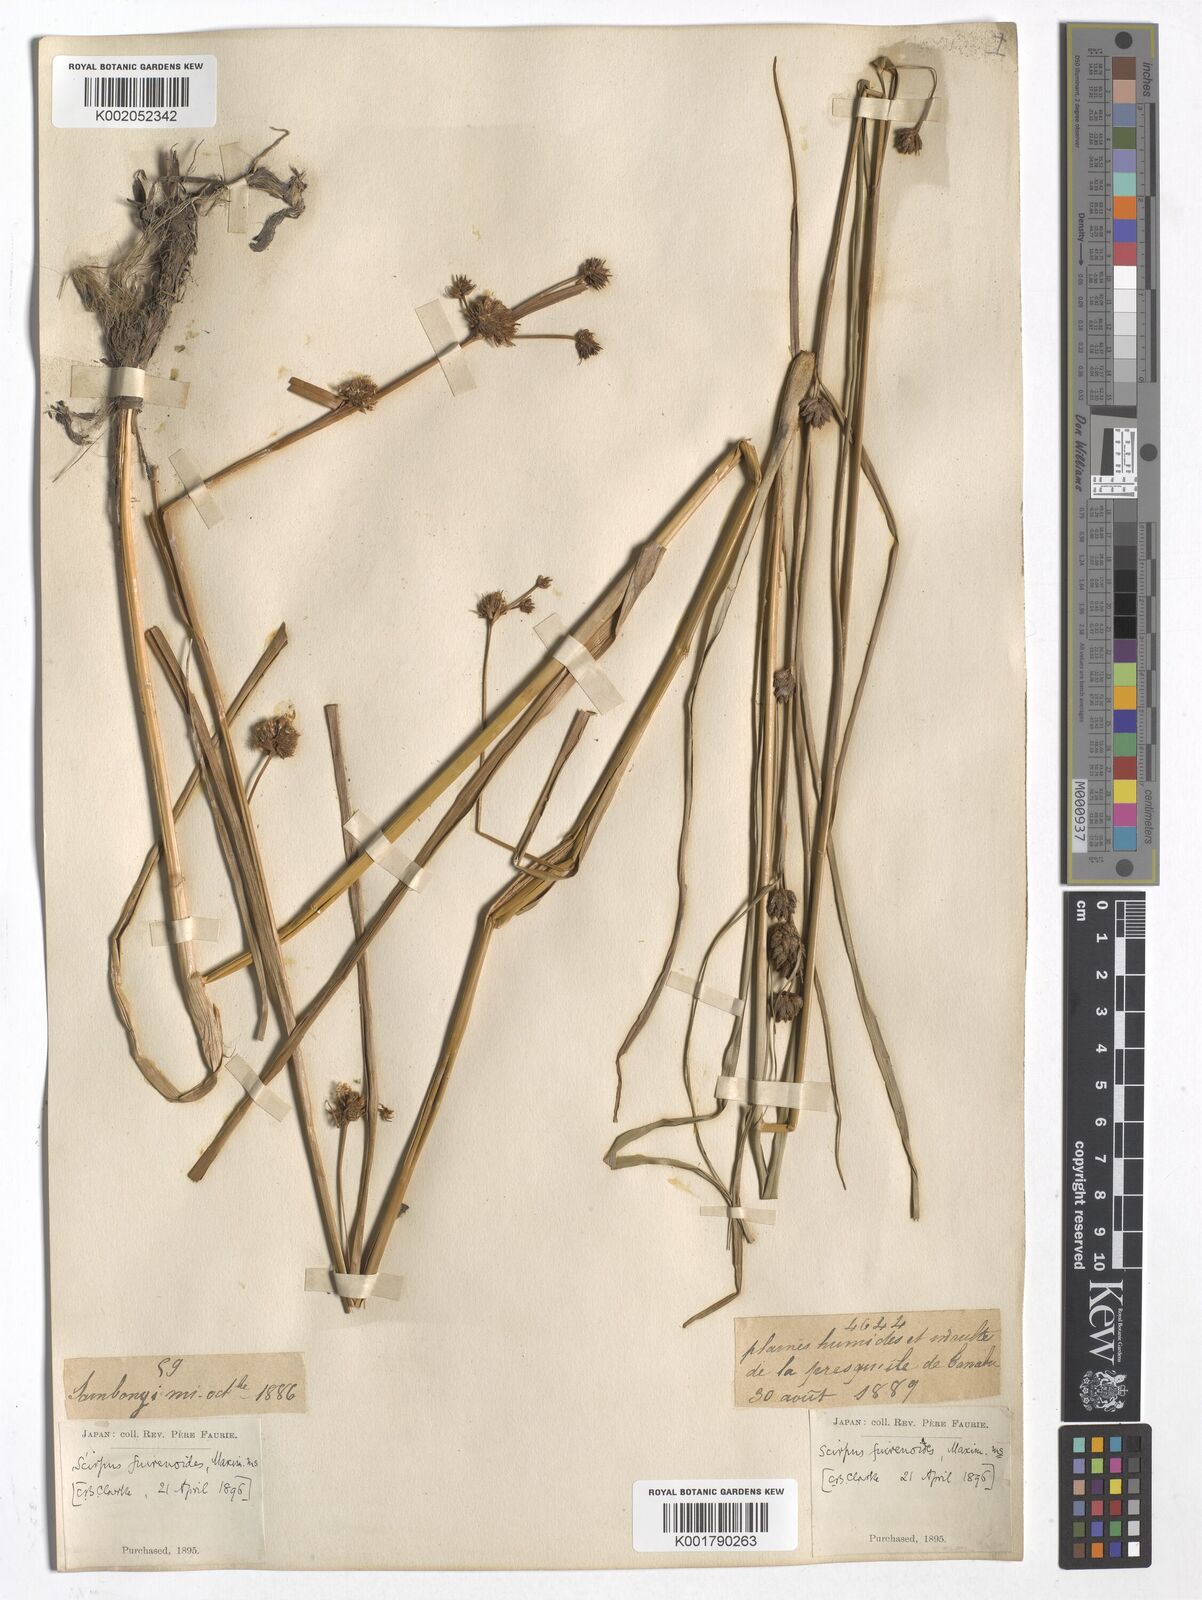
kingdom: Plantae
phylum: Tracheophyta
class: Liliopsida
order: Poales
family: Cyperaceae
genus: Scirpus
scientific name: Scirpus wichurae
